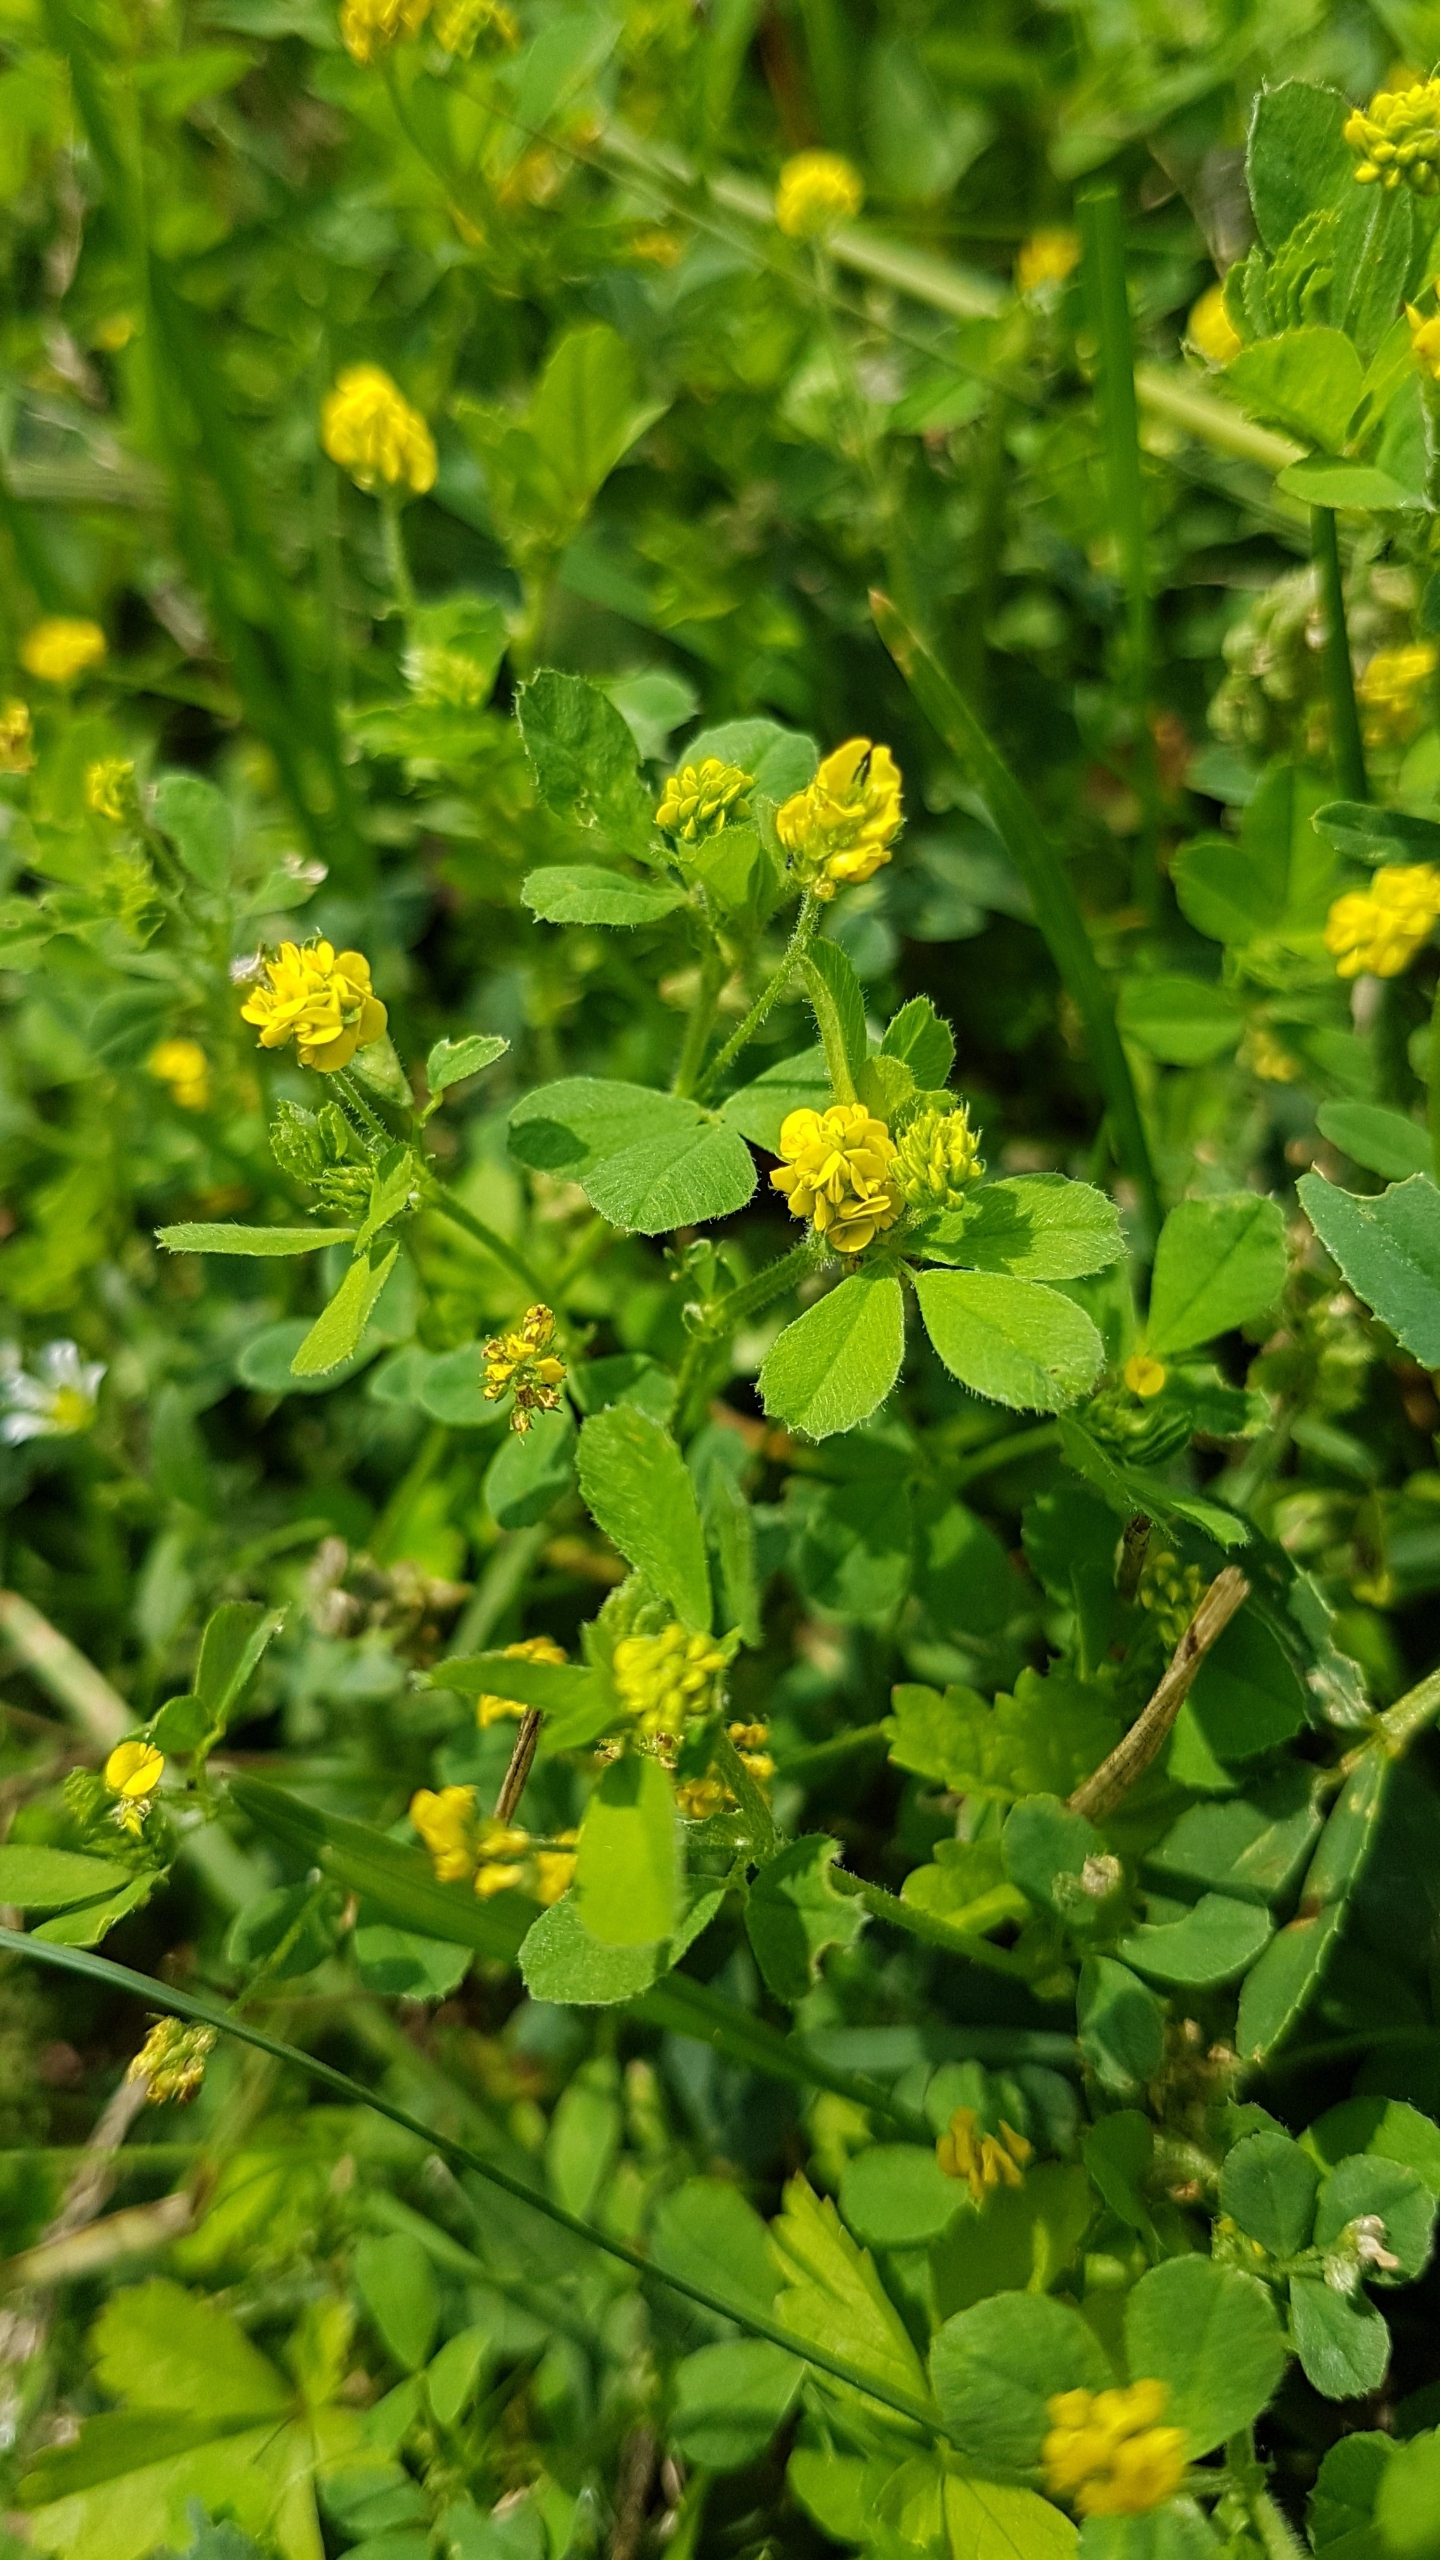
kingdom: Plantae
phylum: Tracheophyta
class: Magnoliopsida
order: Fabales
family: Fabaceae
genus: Medicago
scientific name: Medicago lupulina
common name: Humle-sneglebælg
